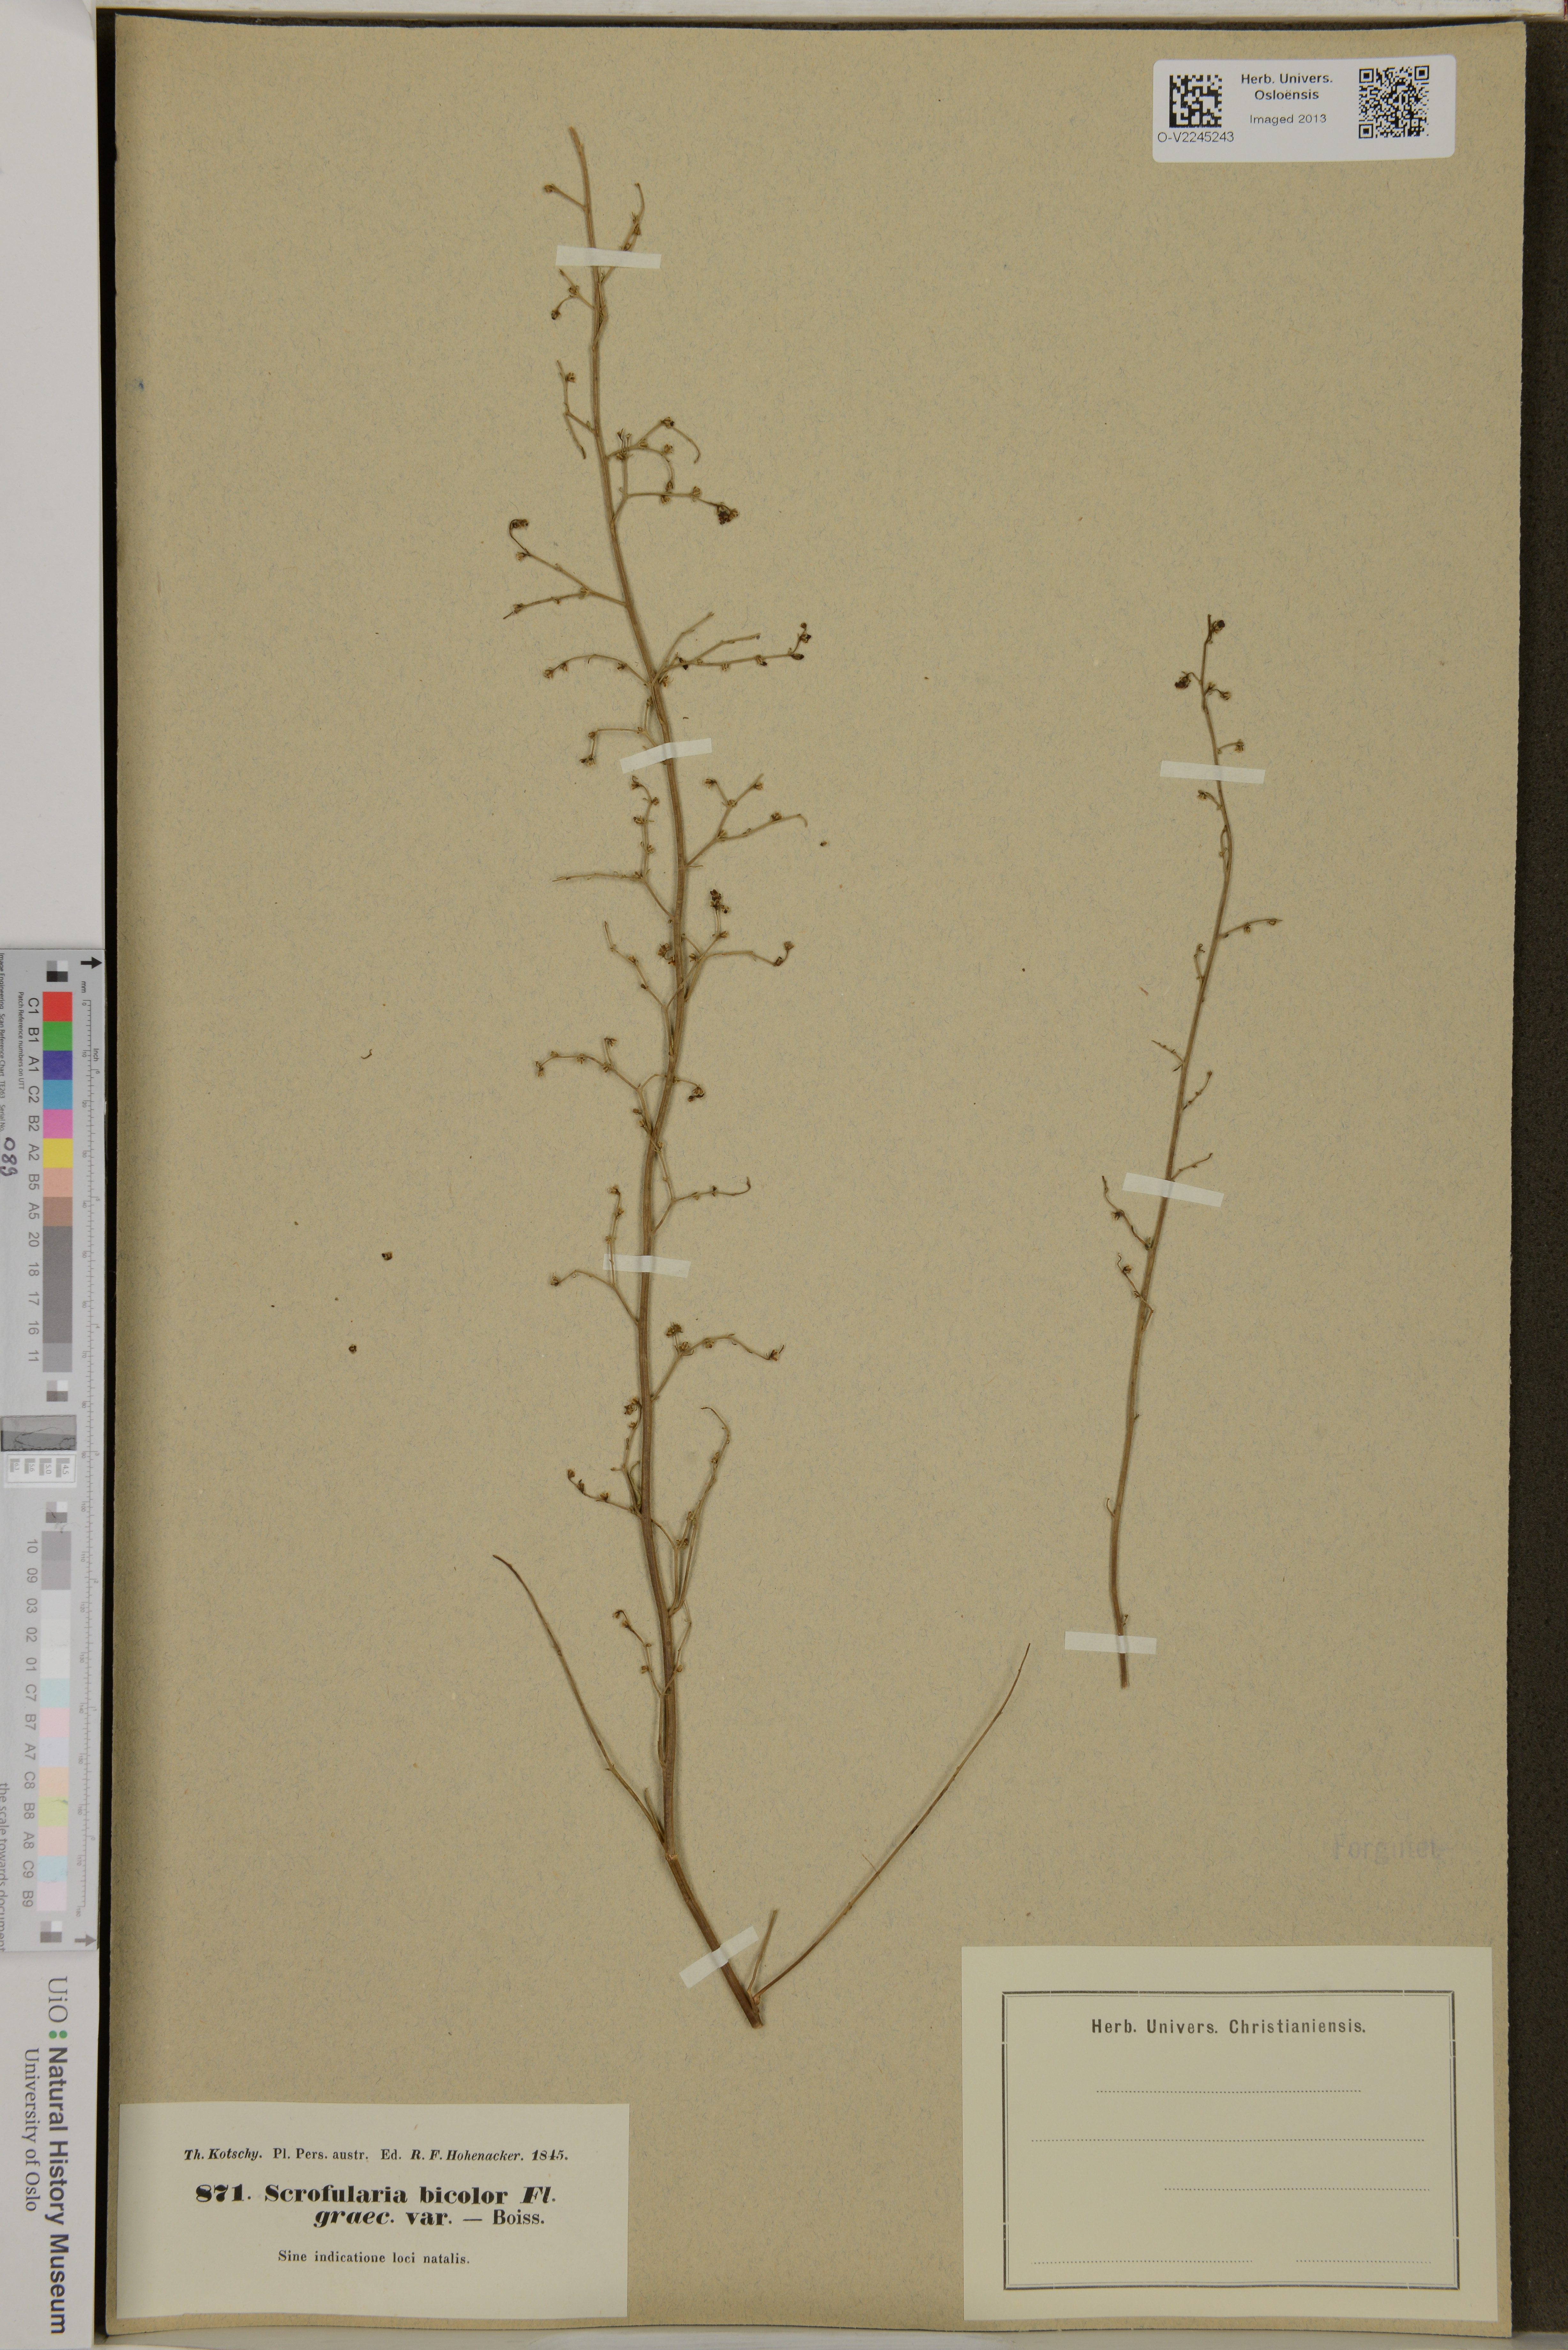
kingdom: Plantae
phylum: Tracheophyta
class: Magnoliopsida
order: Lamiales
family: Scrophulariaceae
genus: Scrophularia
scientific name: Scrophularia
